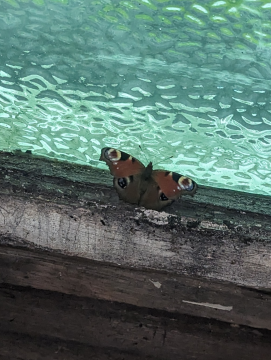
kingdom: Animalia
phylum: Arthropoda
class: Insecta
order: Lepidoptera
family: Nymphalidae
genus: Aglais
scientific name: Aglais io
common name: European Peacock
